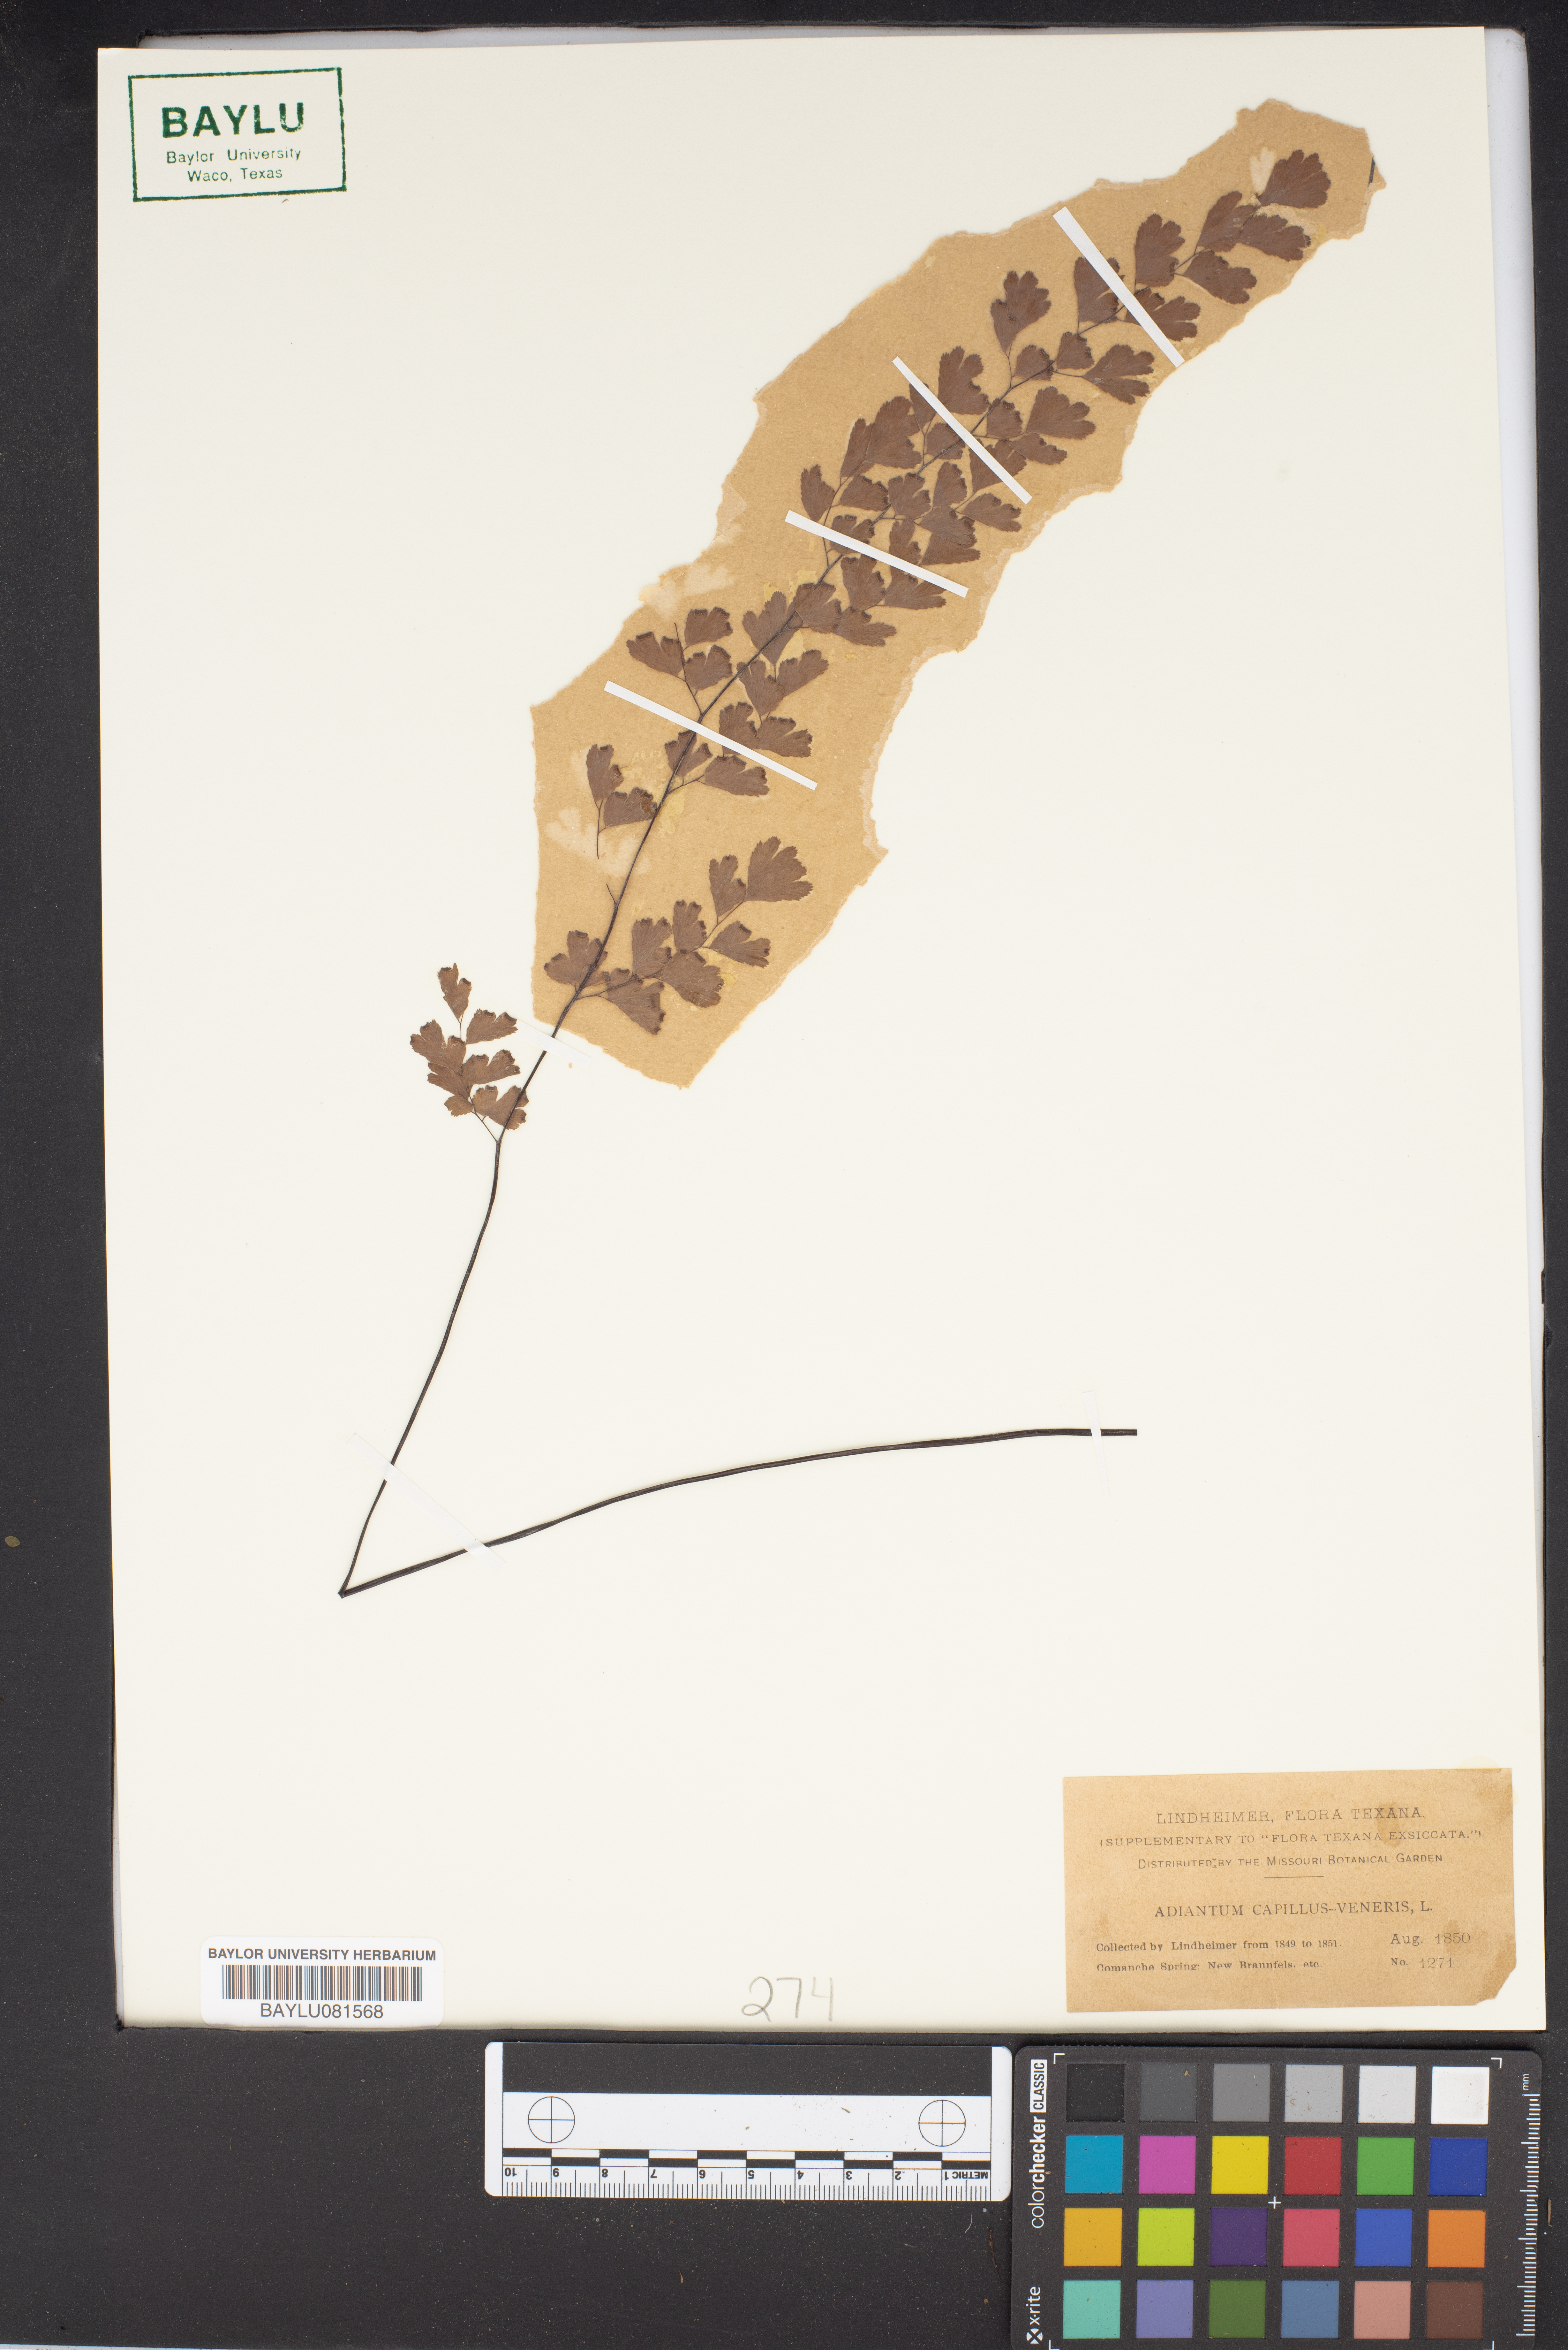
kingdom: Plantae
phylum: Tracheophyta
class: Polypodiopsida
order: Polypodiales
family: Pteridaceae
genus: Adiantum
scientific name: Adiantum capillus-veneris
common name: Maidenhair fern
